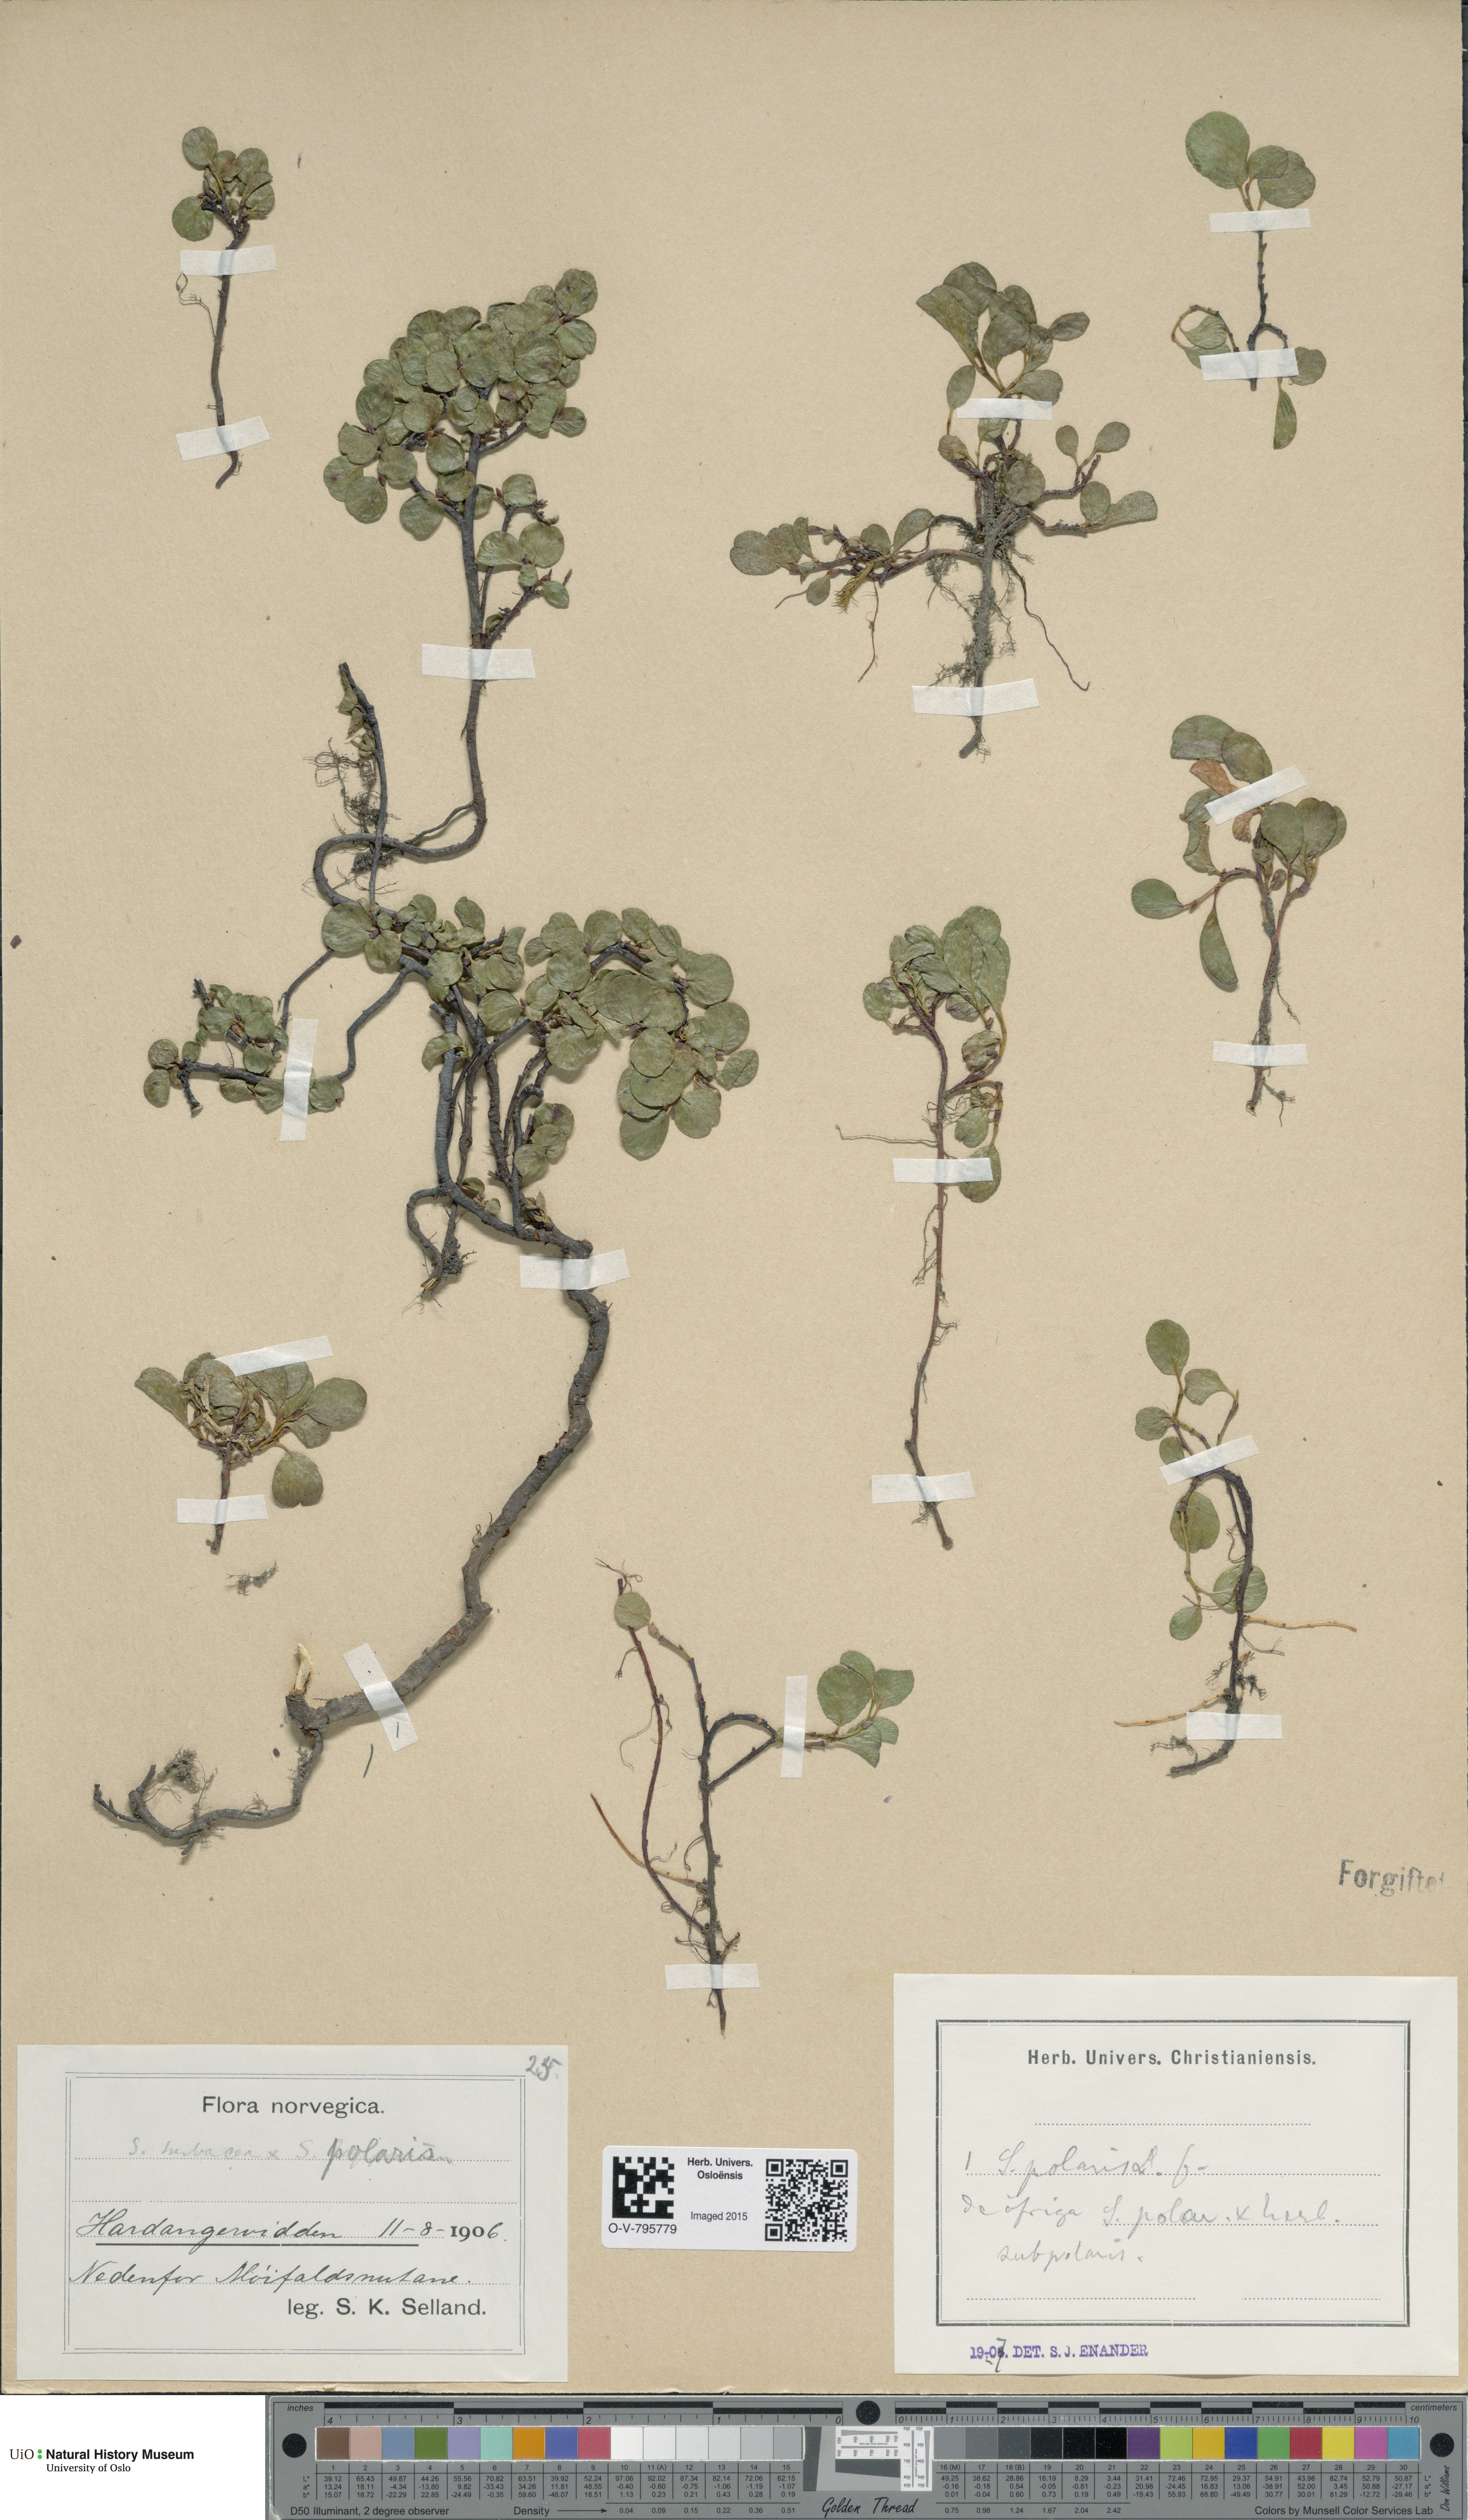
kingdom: Plantae
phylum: Tracheophyta
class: Magnoliopsida
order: Malpighiales
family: Salicaceae
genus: Salix
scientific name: Salix
